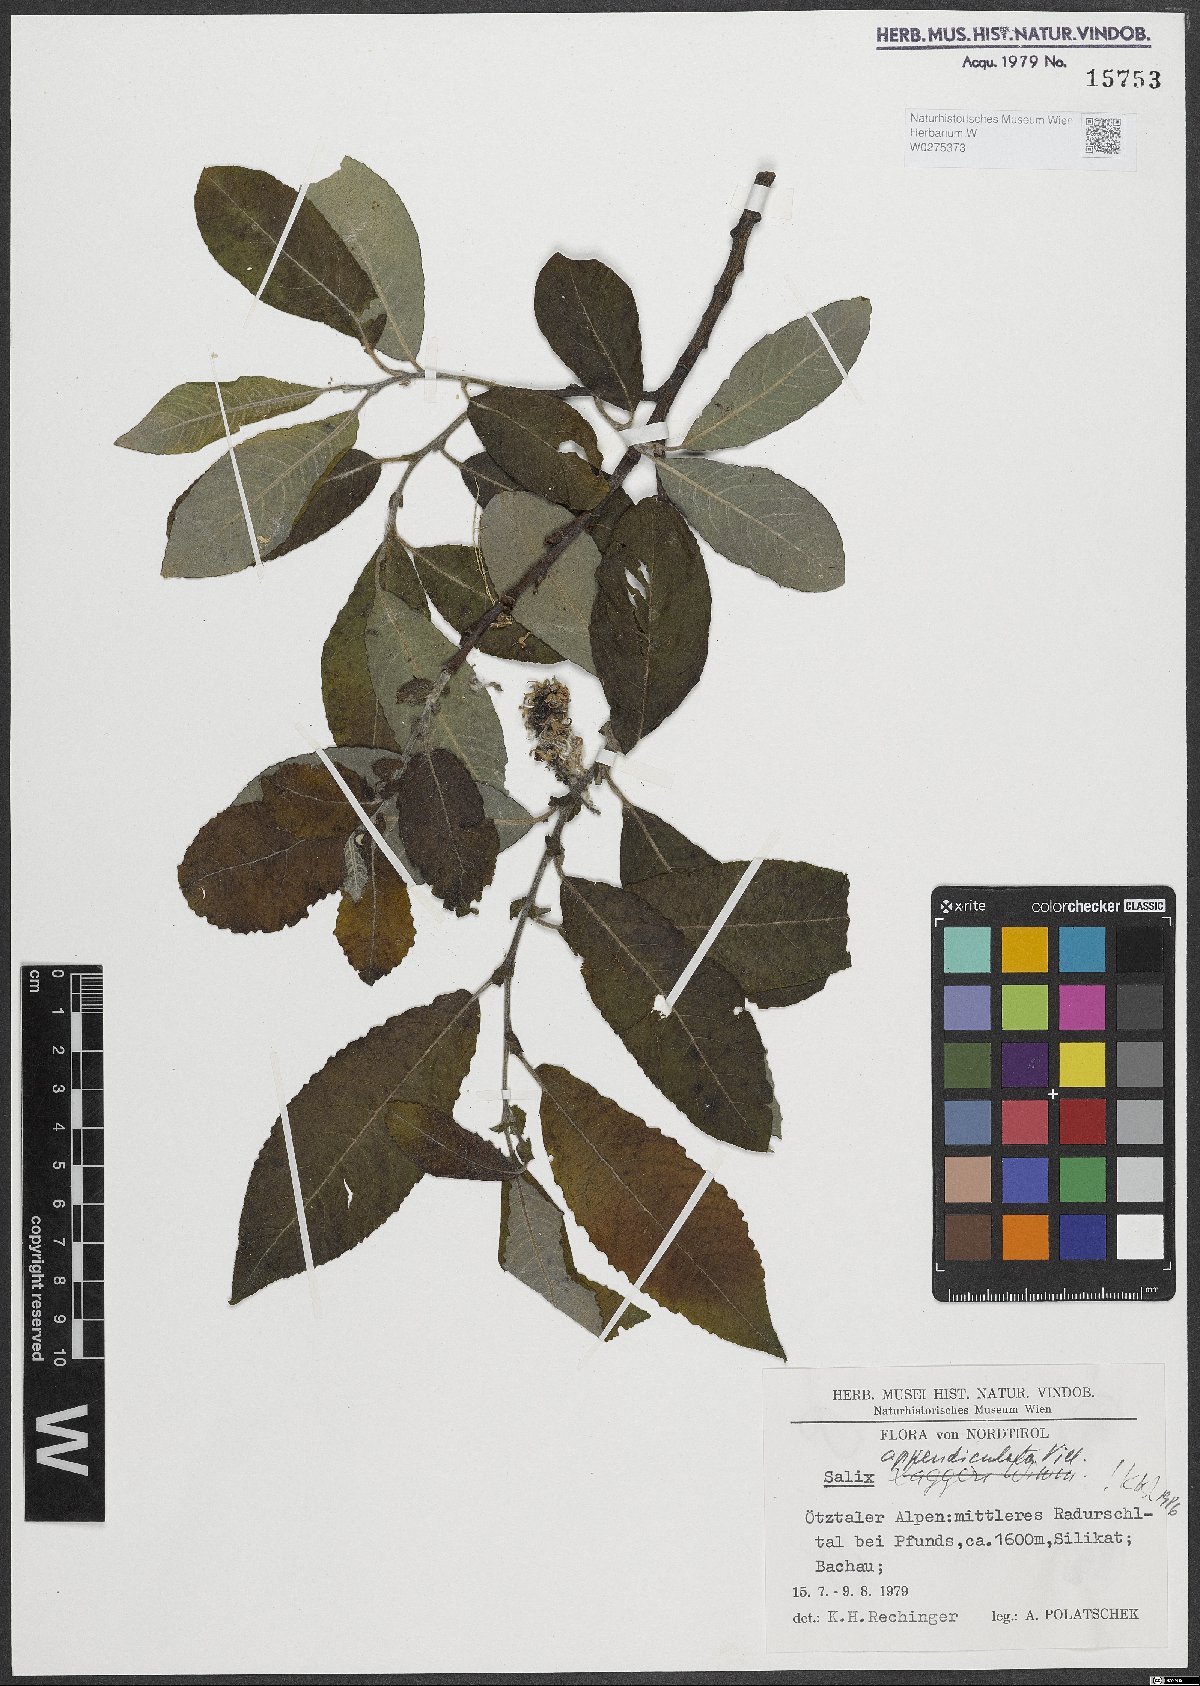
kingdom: Plantae
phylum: Tracheophyta
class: Magnoliopsida
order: Malpighiales
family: Salicaceae
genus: Salix
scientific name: Salix appendiculata
